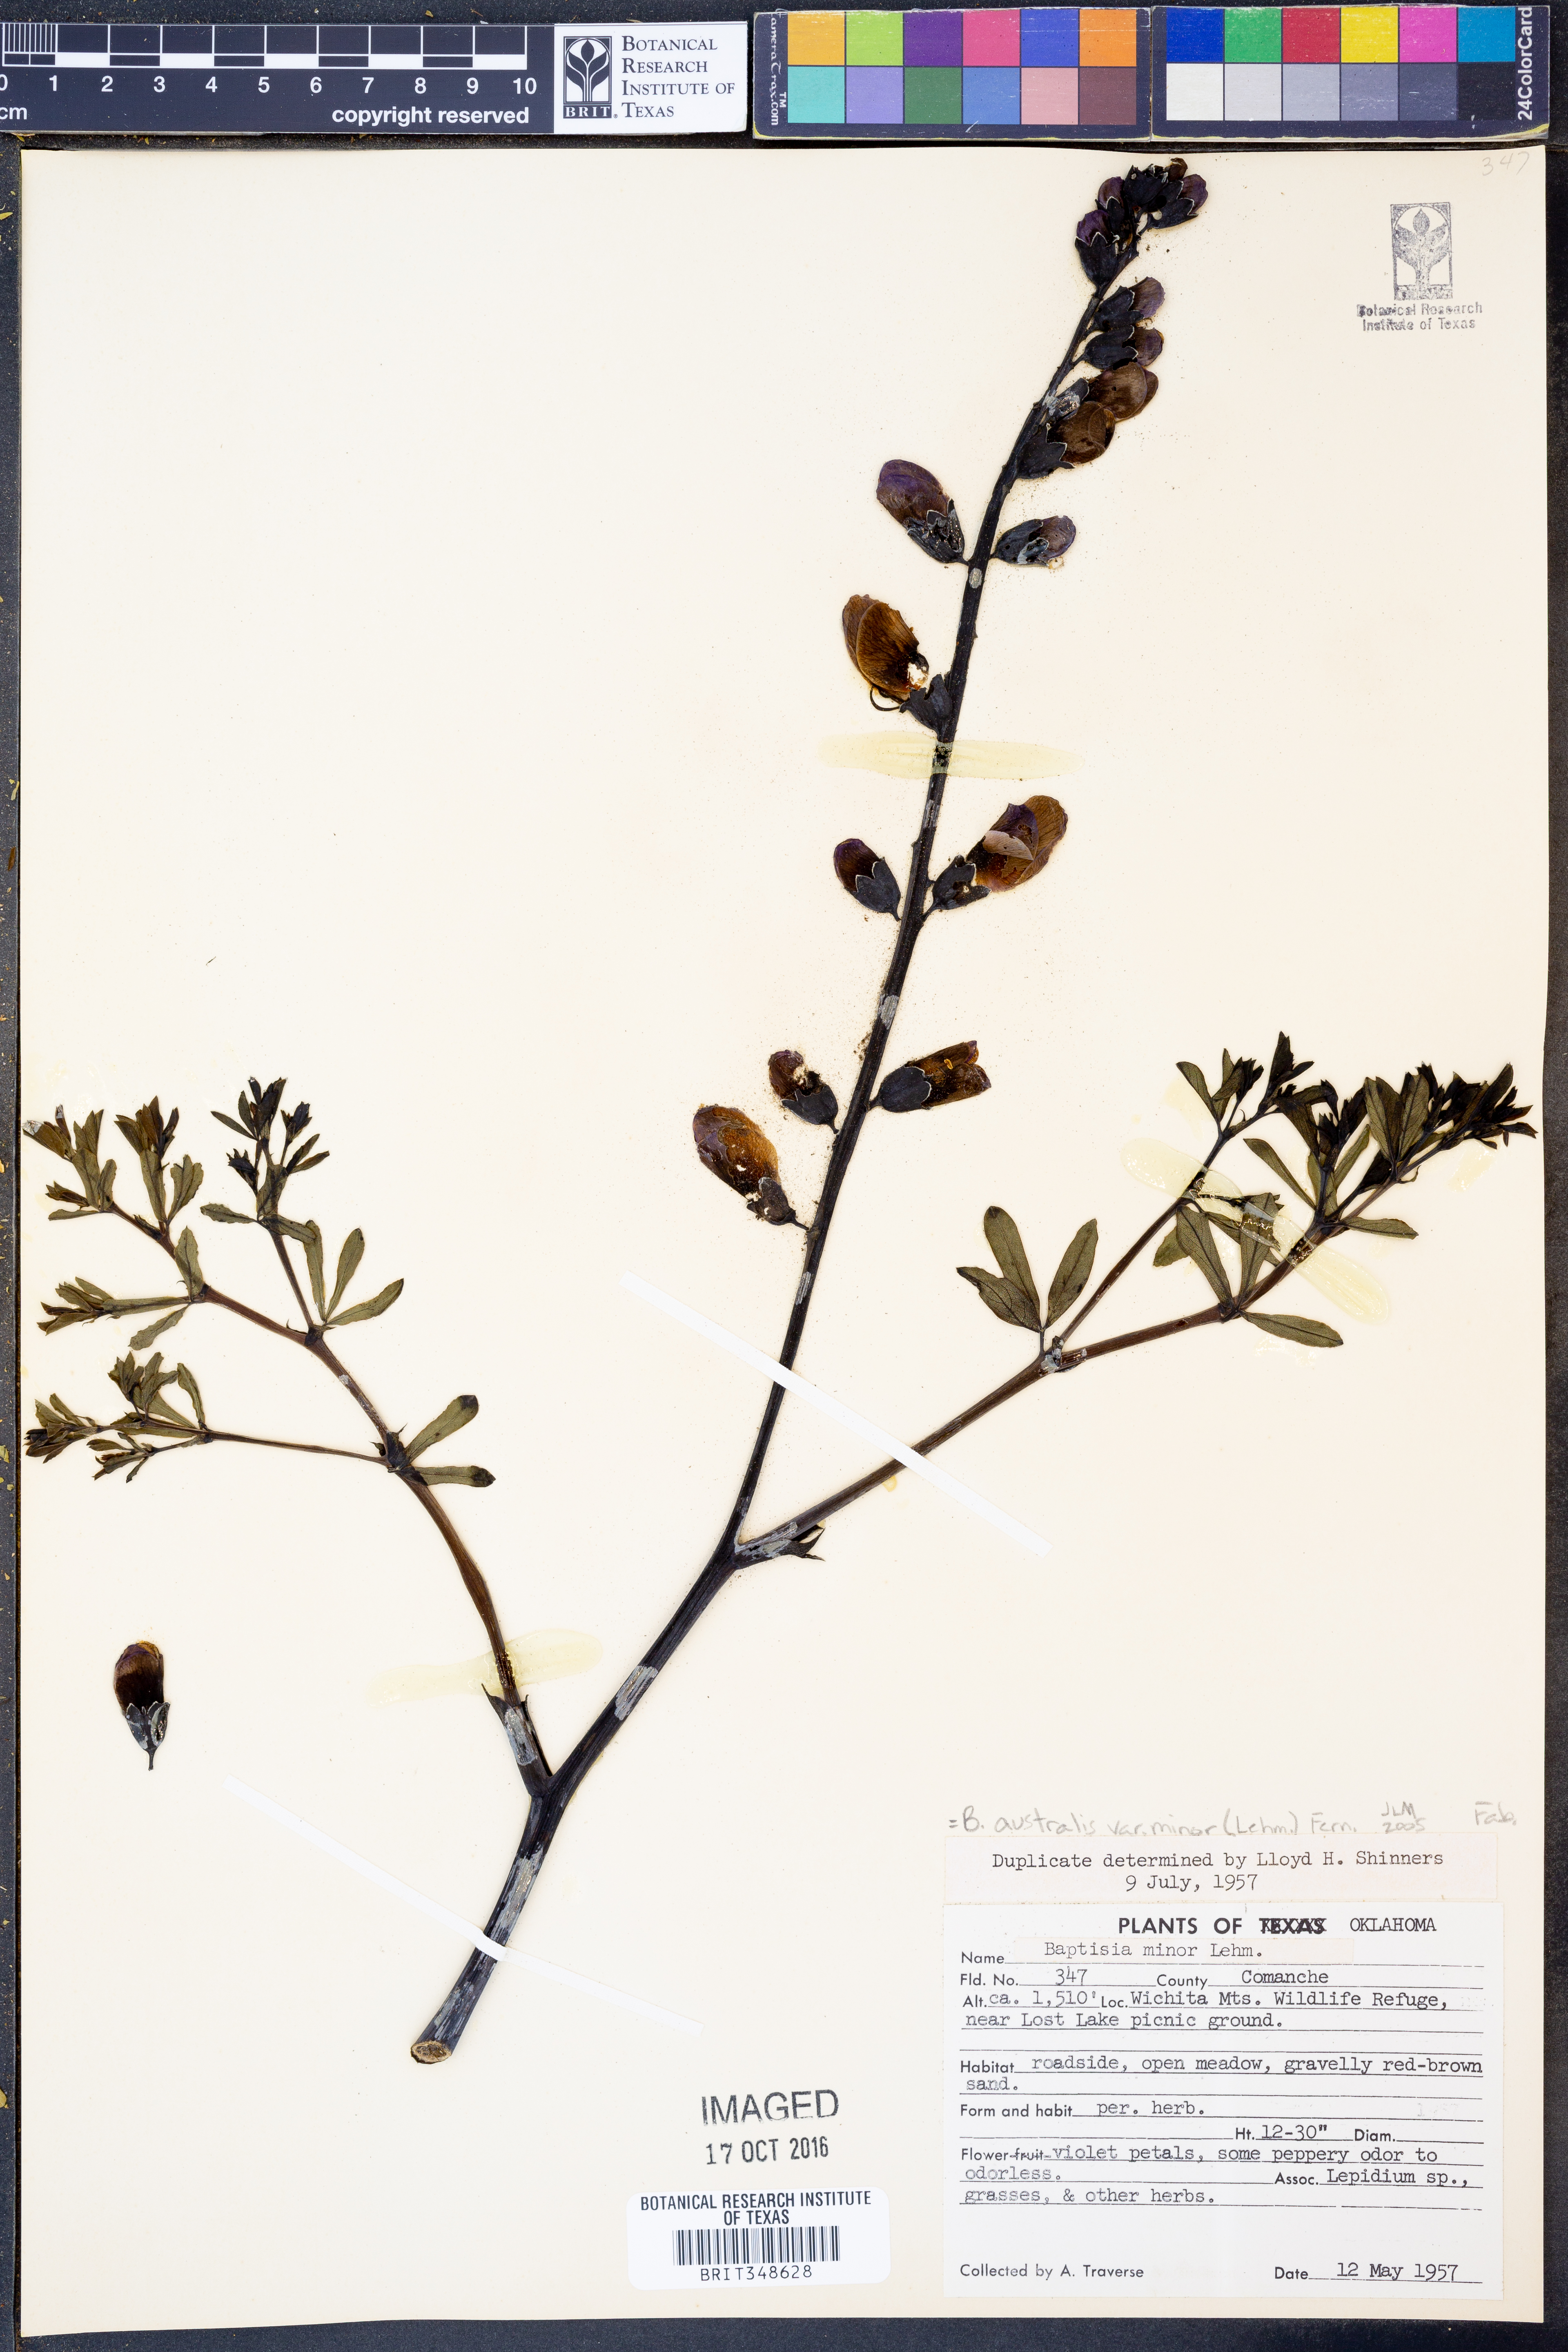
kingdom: Plantae
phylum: Tracheophyta
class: Magnoliopsida
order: Fabales
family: Fabaceae
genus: Baptisia
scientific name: Baptisia australis
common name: Blue false indigo
